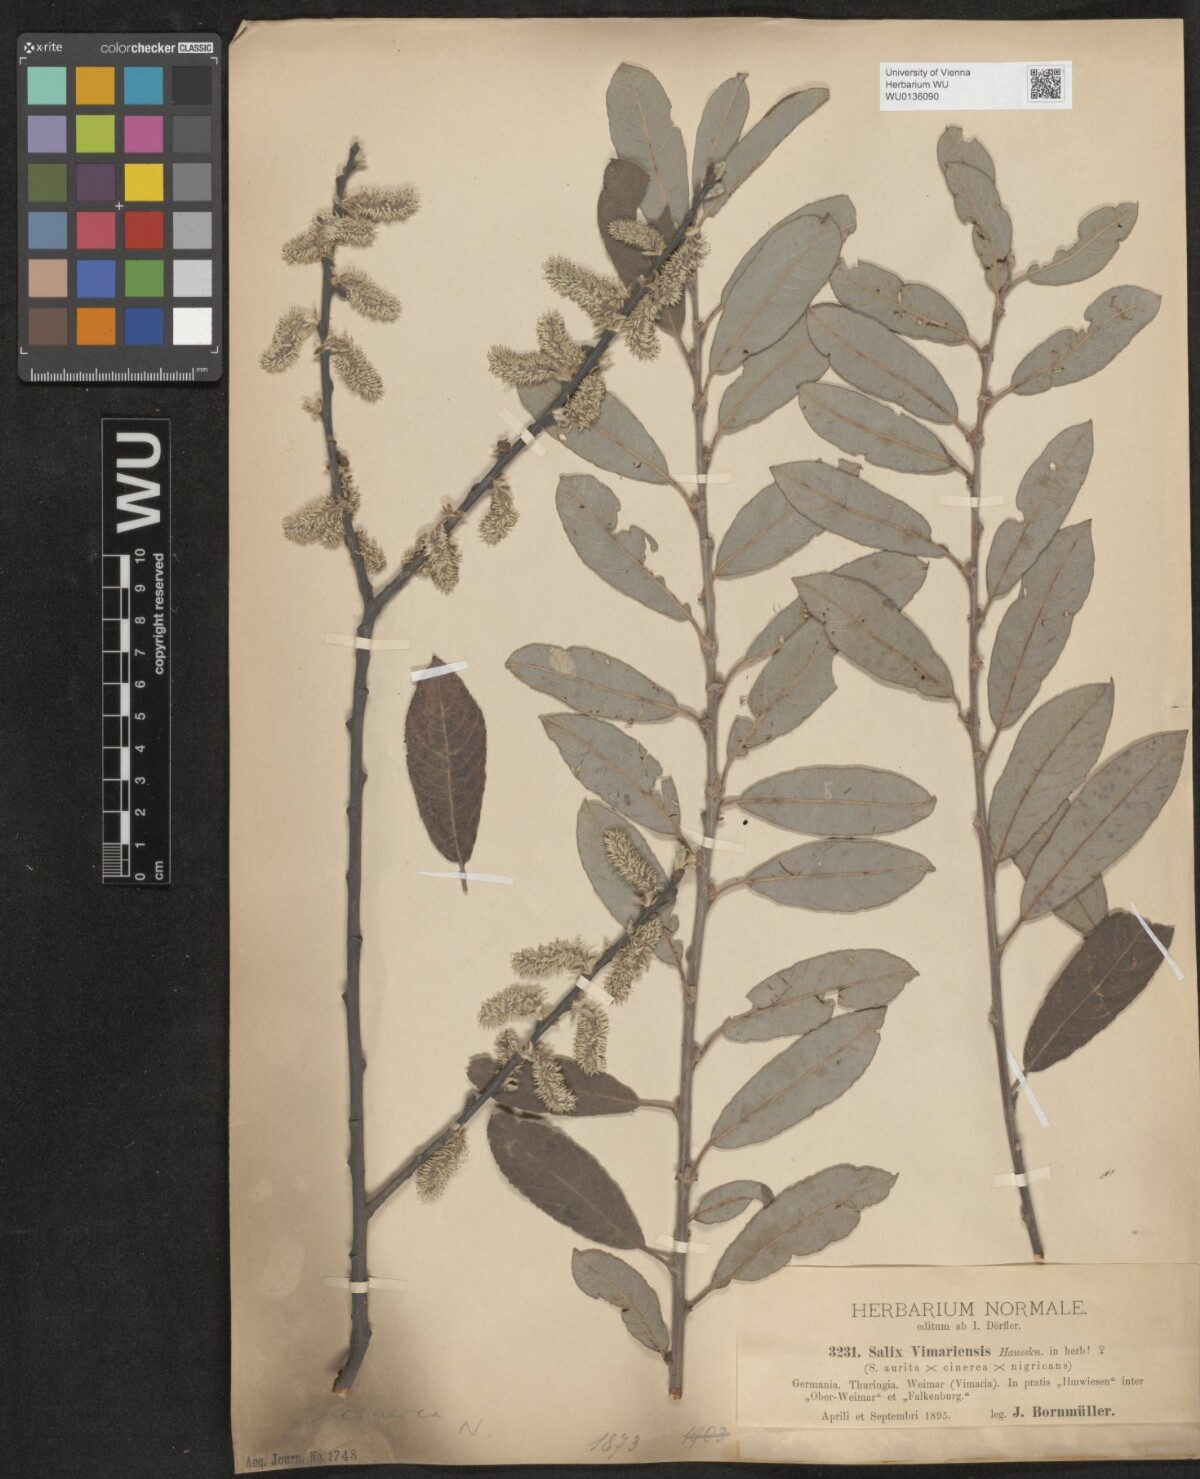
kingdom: Plantae
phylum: Tracheophyta
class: Magnoliopsida
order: Malpighiales
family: Salicaceae
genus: Salix
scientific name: Salix cinerea
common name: Common sallow
